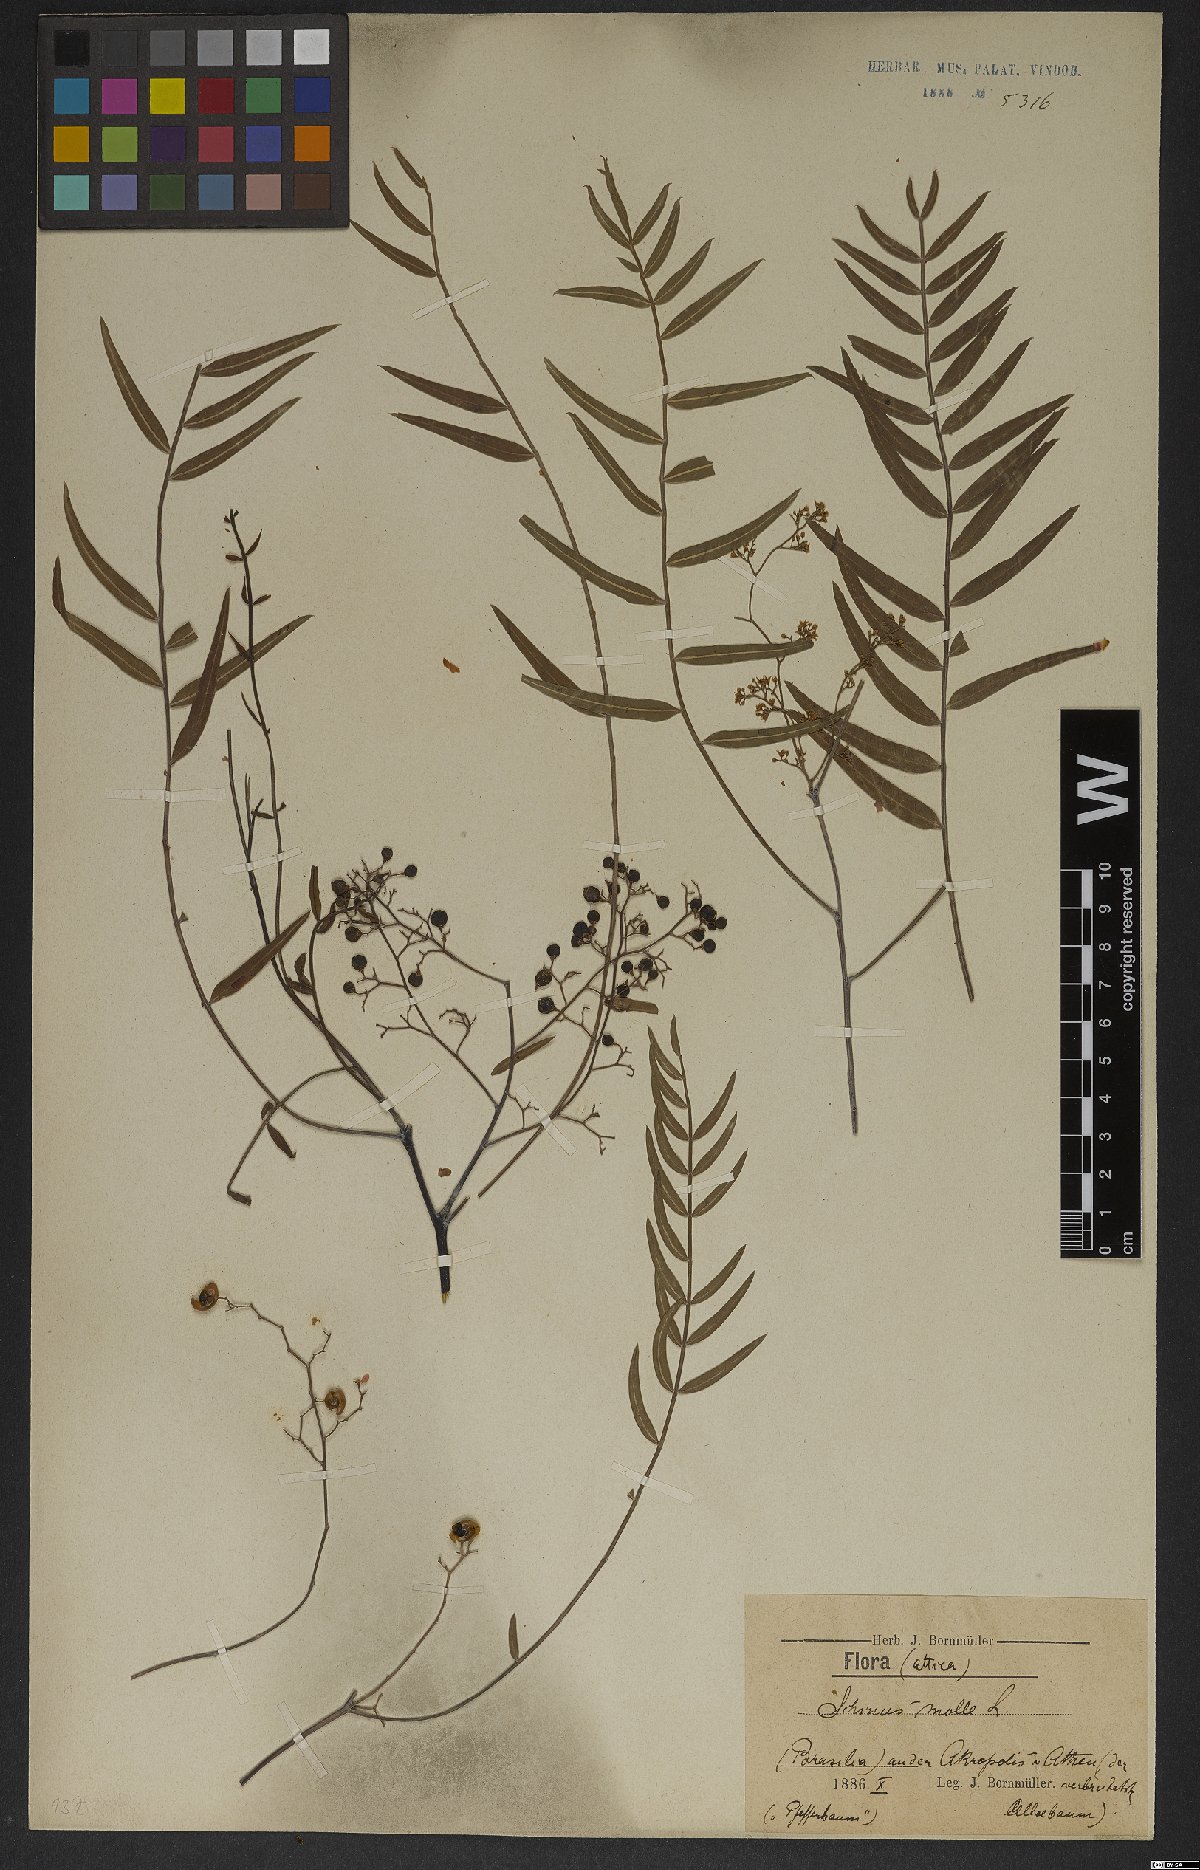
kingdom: Plantae
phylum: Tracheophyta
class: Magnoliopsida
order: Sapindales
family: Anacardiaceae
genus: Schinus
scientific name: Schinus molle
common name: Peruvian peppertree
